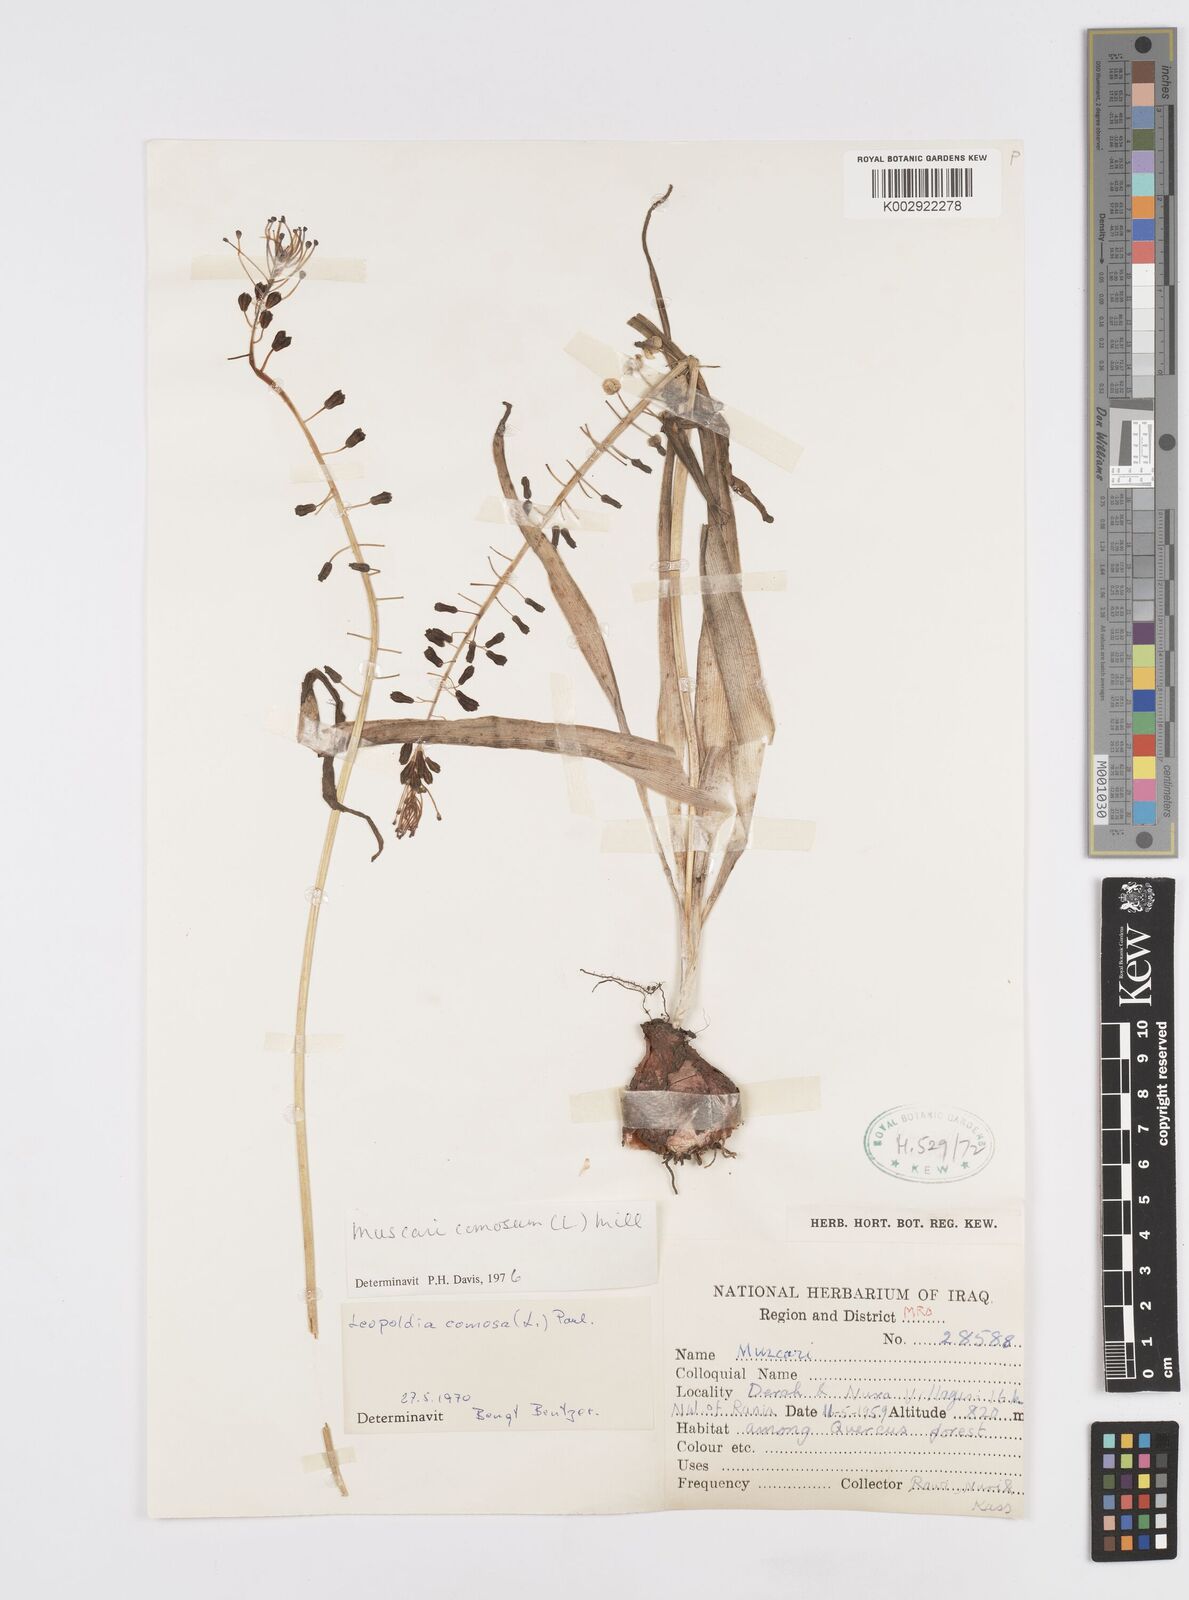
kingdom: Plantae
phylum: Tracheophyta
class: Liliopsida
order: Asparagales
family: Asparagaceae
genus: Muscari
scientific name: Muscari comosum
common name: Tassel hyacinth
